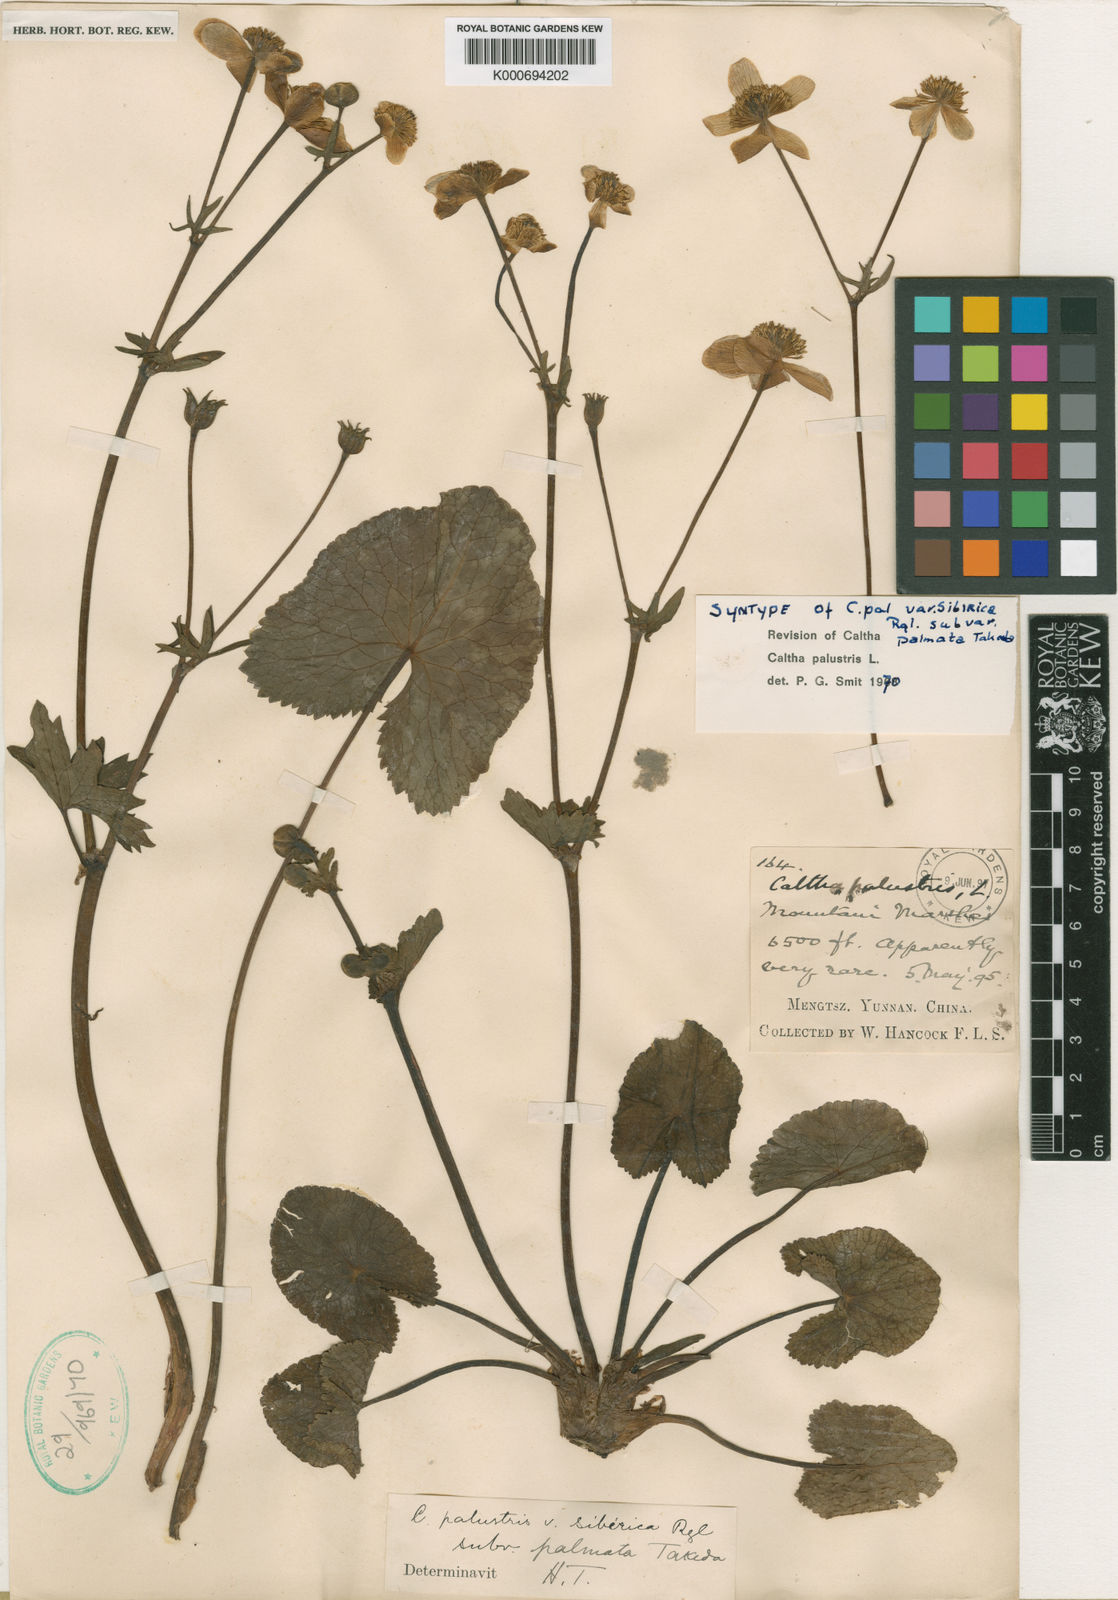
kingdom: Plantae
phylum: Tracheophyta
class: Magnoliopsida
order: Ranunculales
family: Ranunculaceae
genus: Caltha
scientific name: Caltha palustris
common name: Marsh marigold
